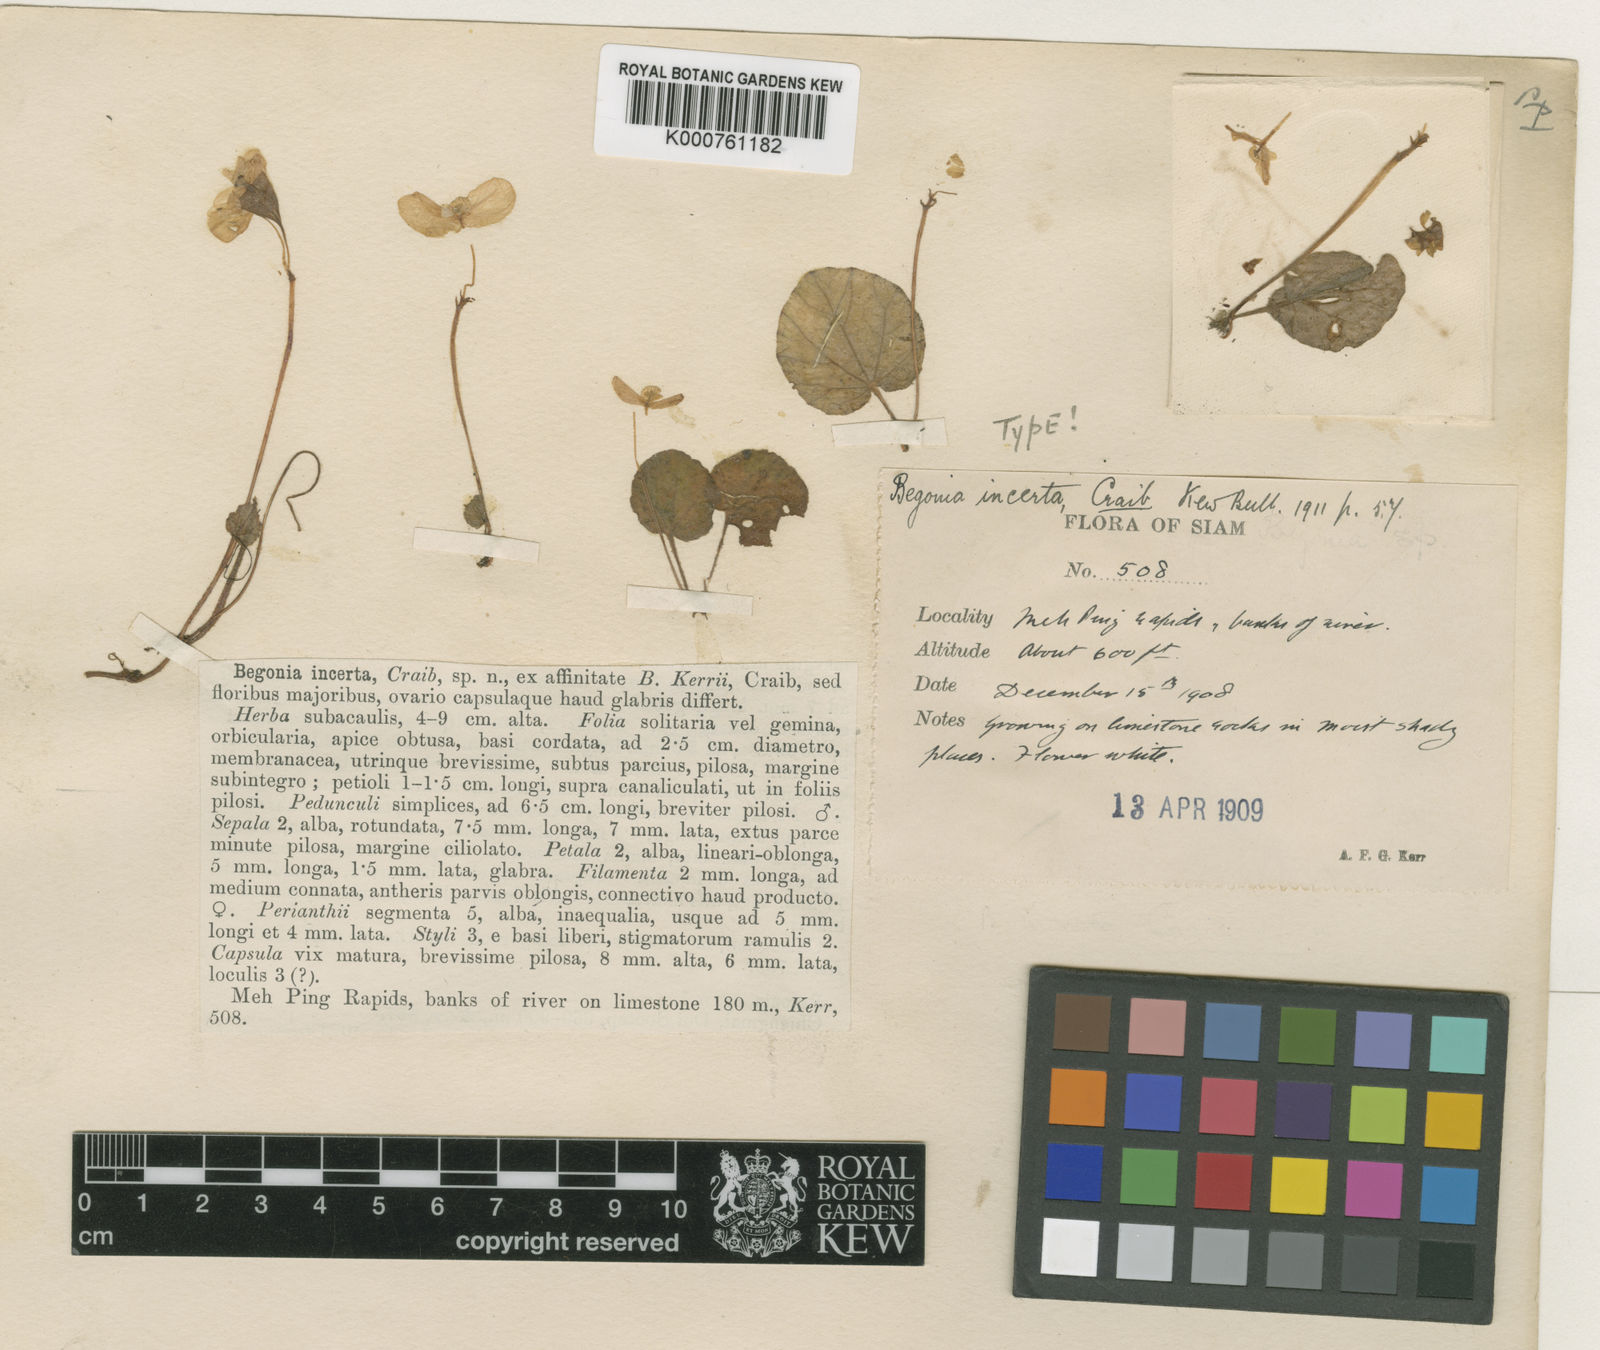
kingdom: Plantae
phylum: Tracheophyta
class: Magnoliopsida
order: Cucurbitales
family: Begoniaceae
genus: Begonia
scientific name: Begonia incerta
